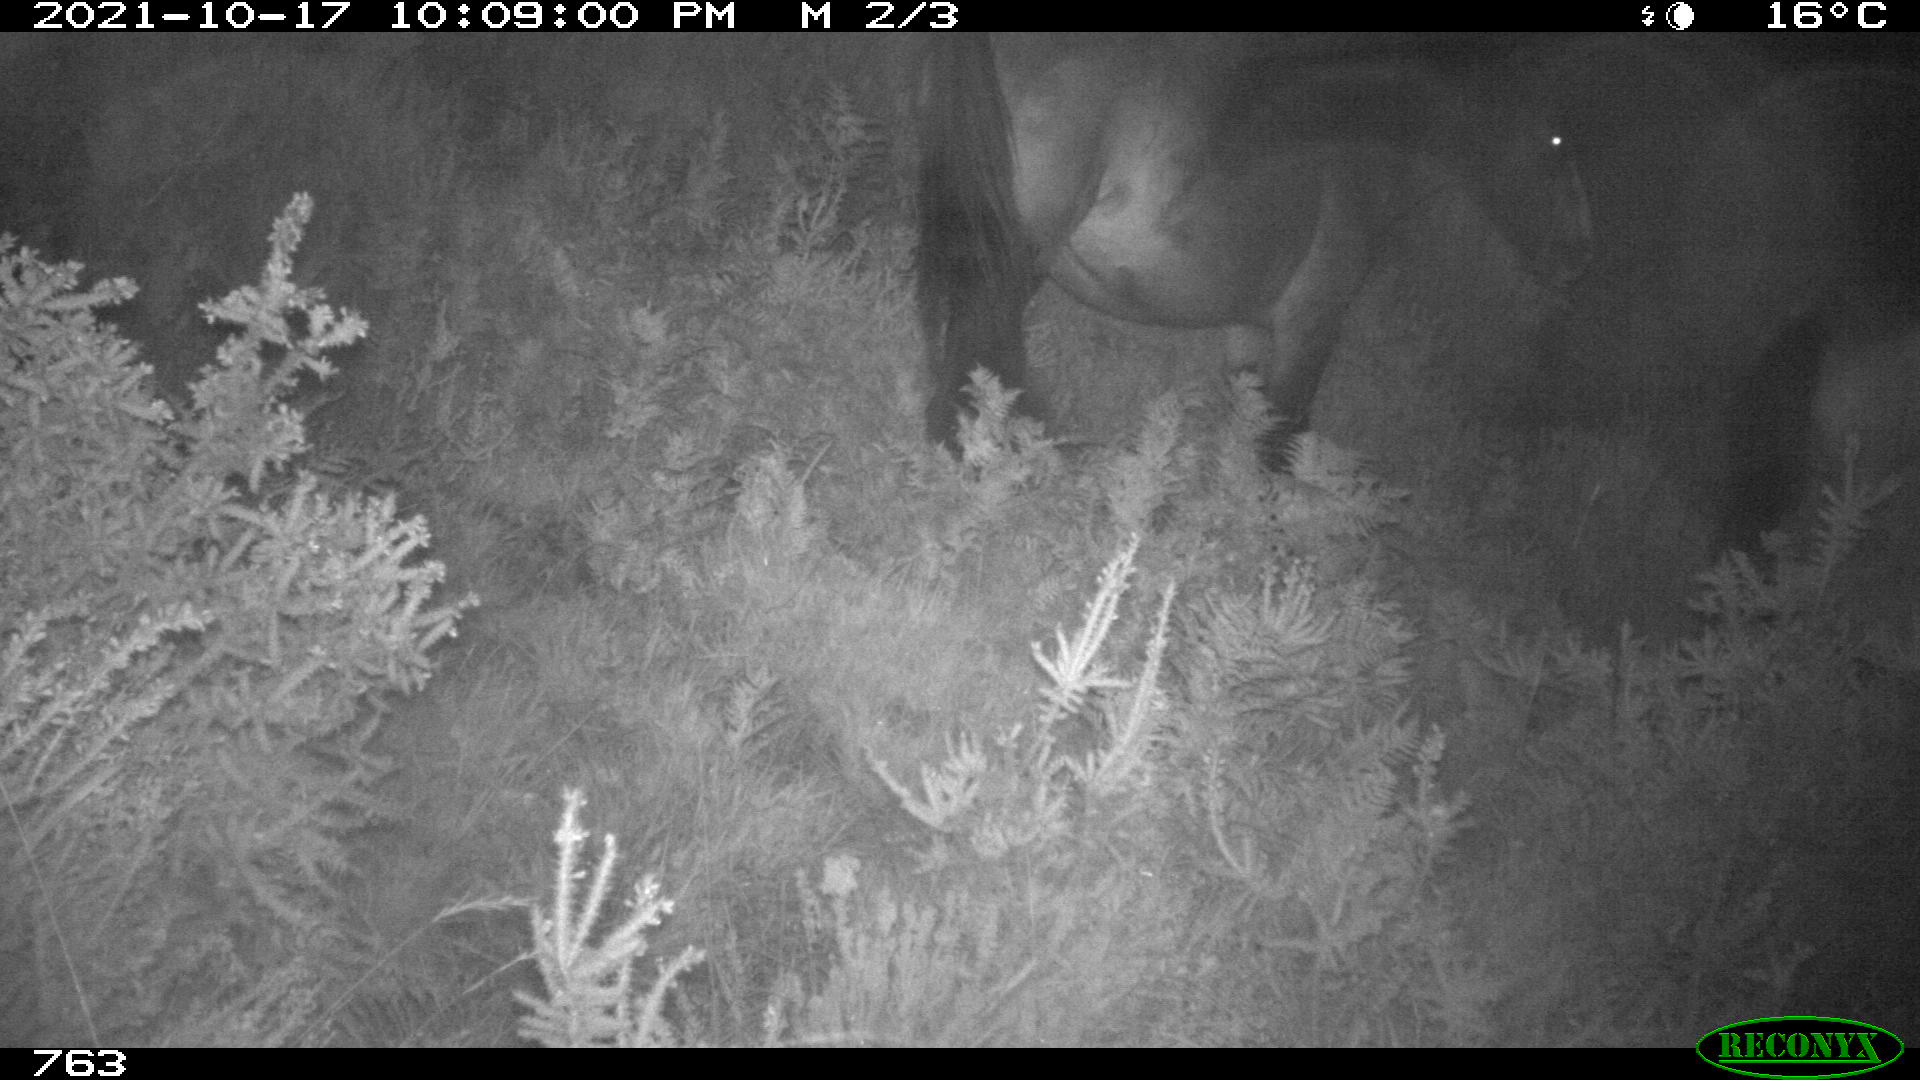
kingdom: Animalia
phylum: Chordata
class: Mammalia
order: Perissodactyla
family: Equidae
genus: Equus
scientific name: Equus caballus
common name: Horse
